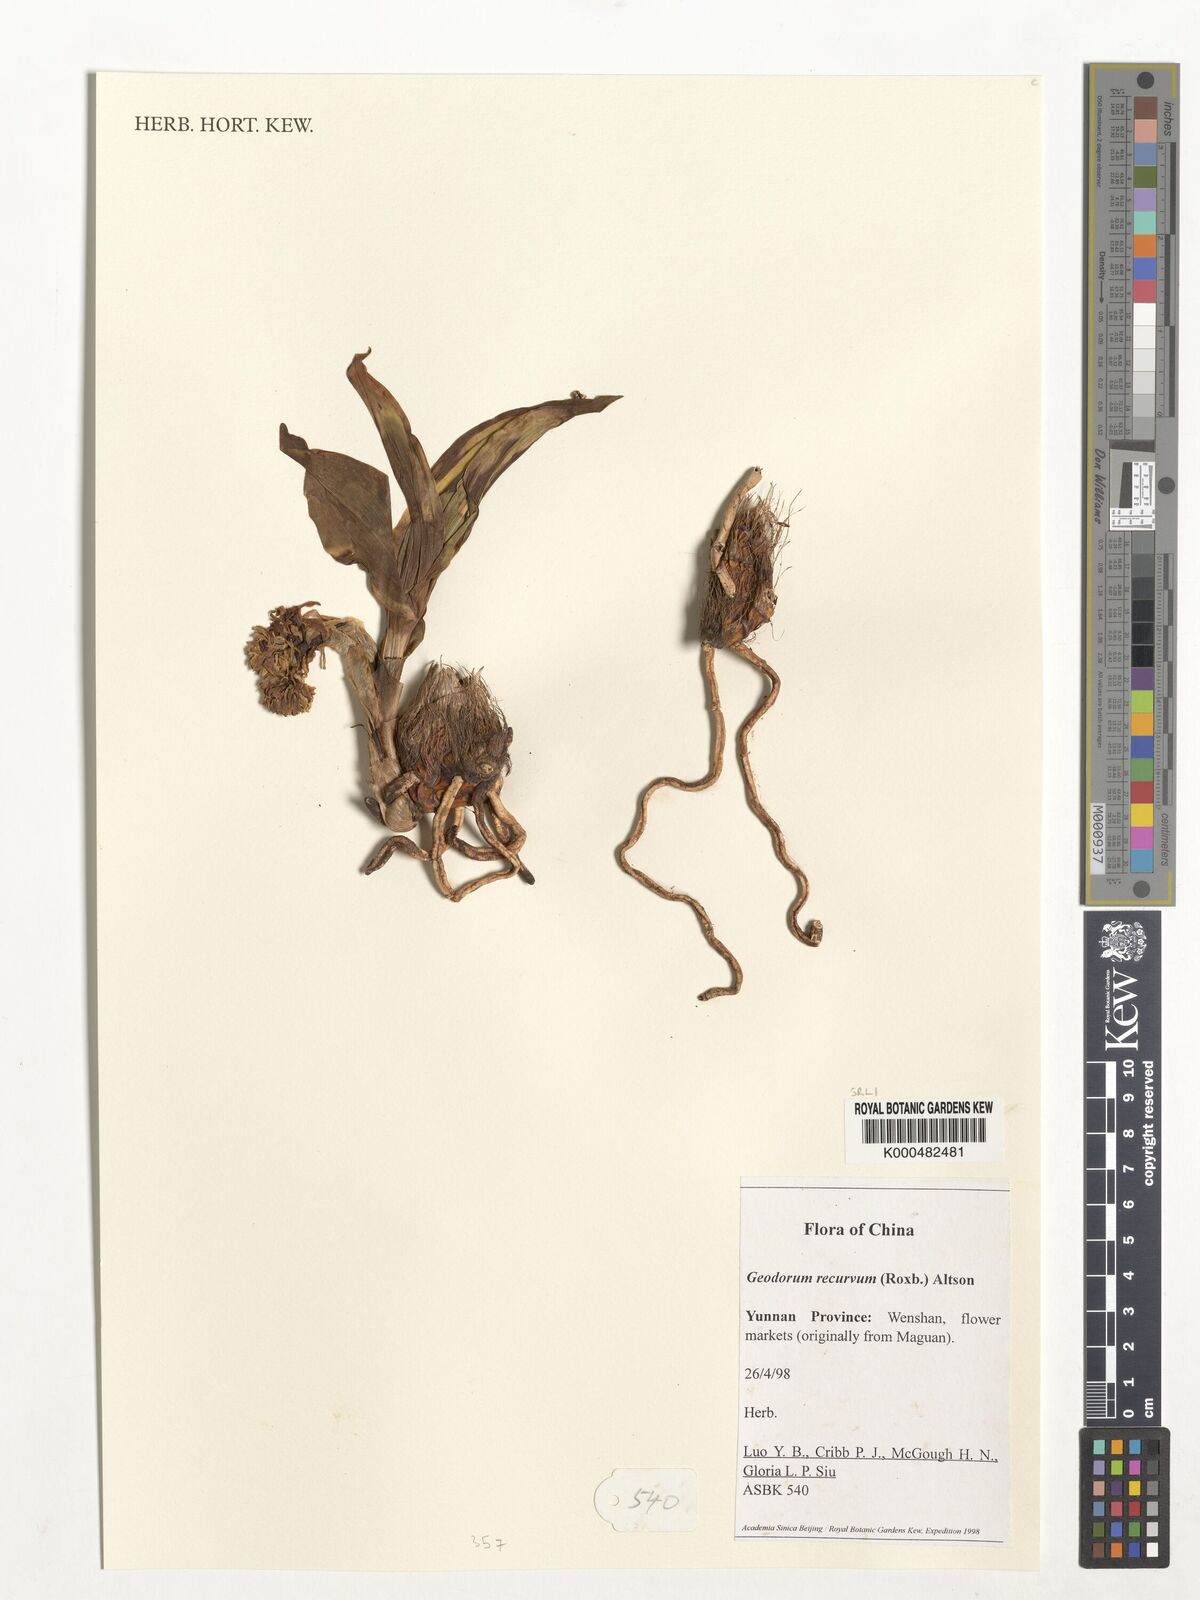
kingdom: Plantae
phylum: Tracheophyta
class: Liliopsida
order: Asparagales
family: Orchidaceae
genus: Eulophia
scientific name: Eulophia recurva
